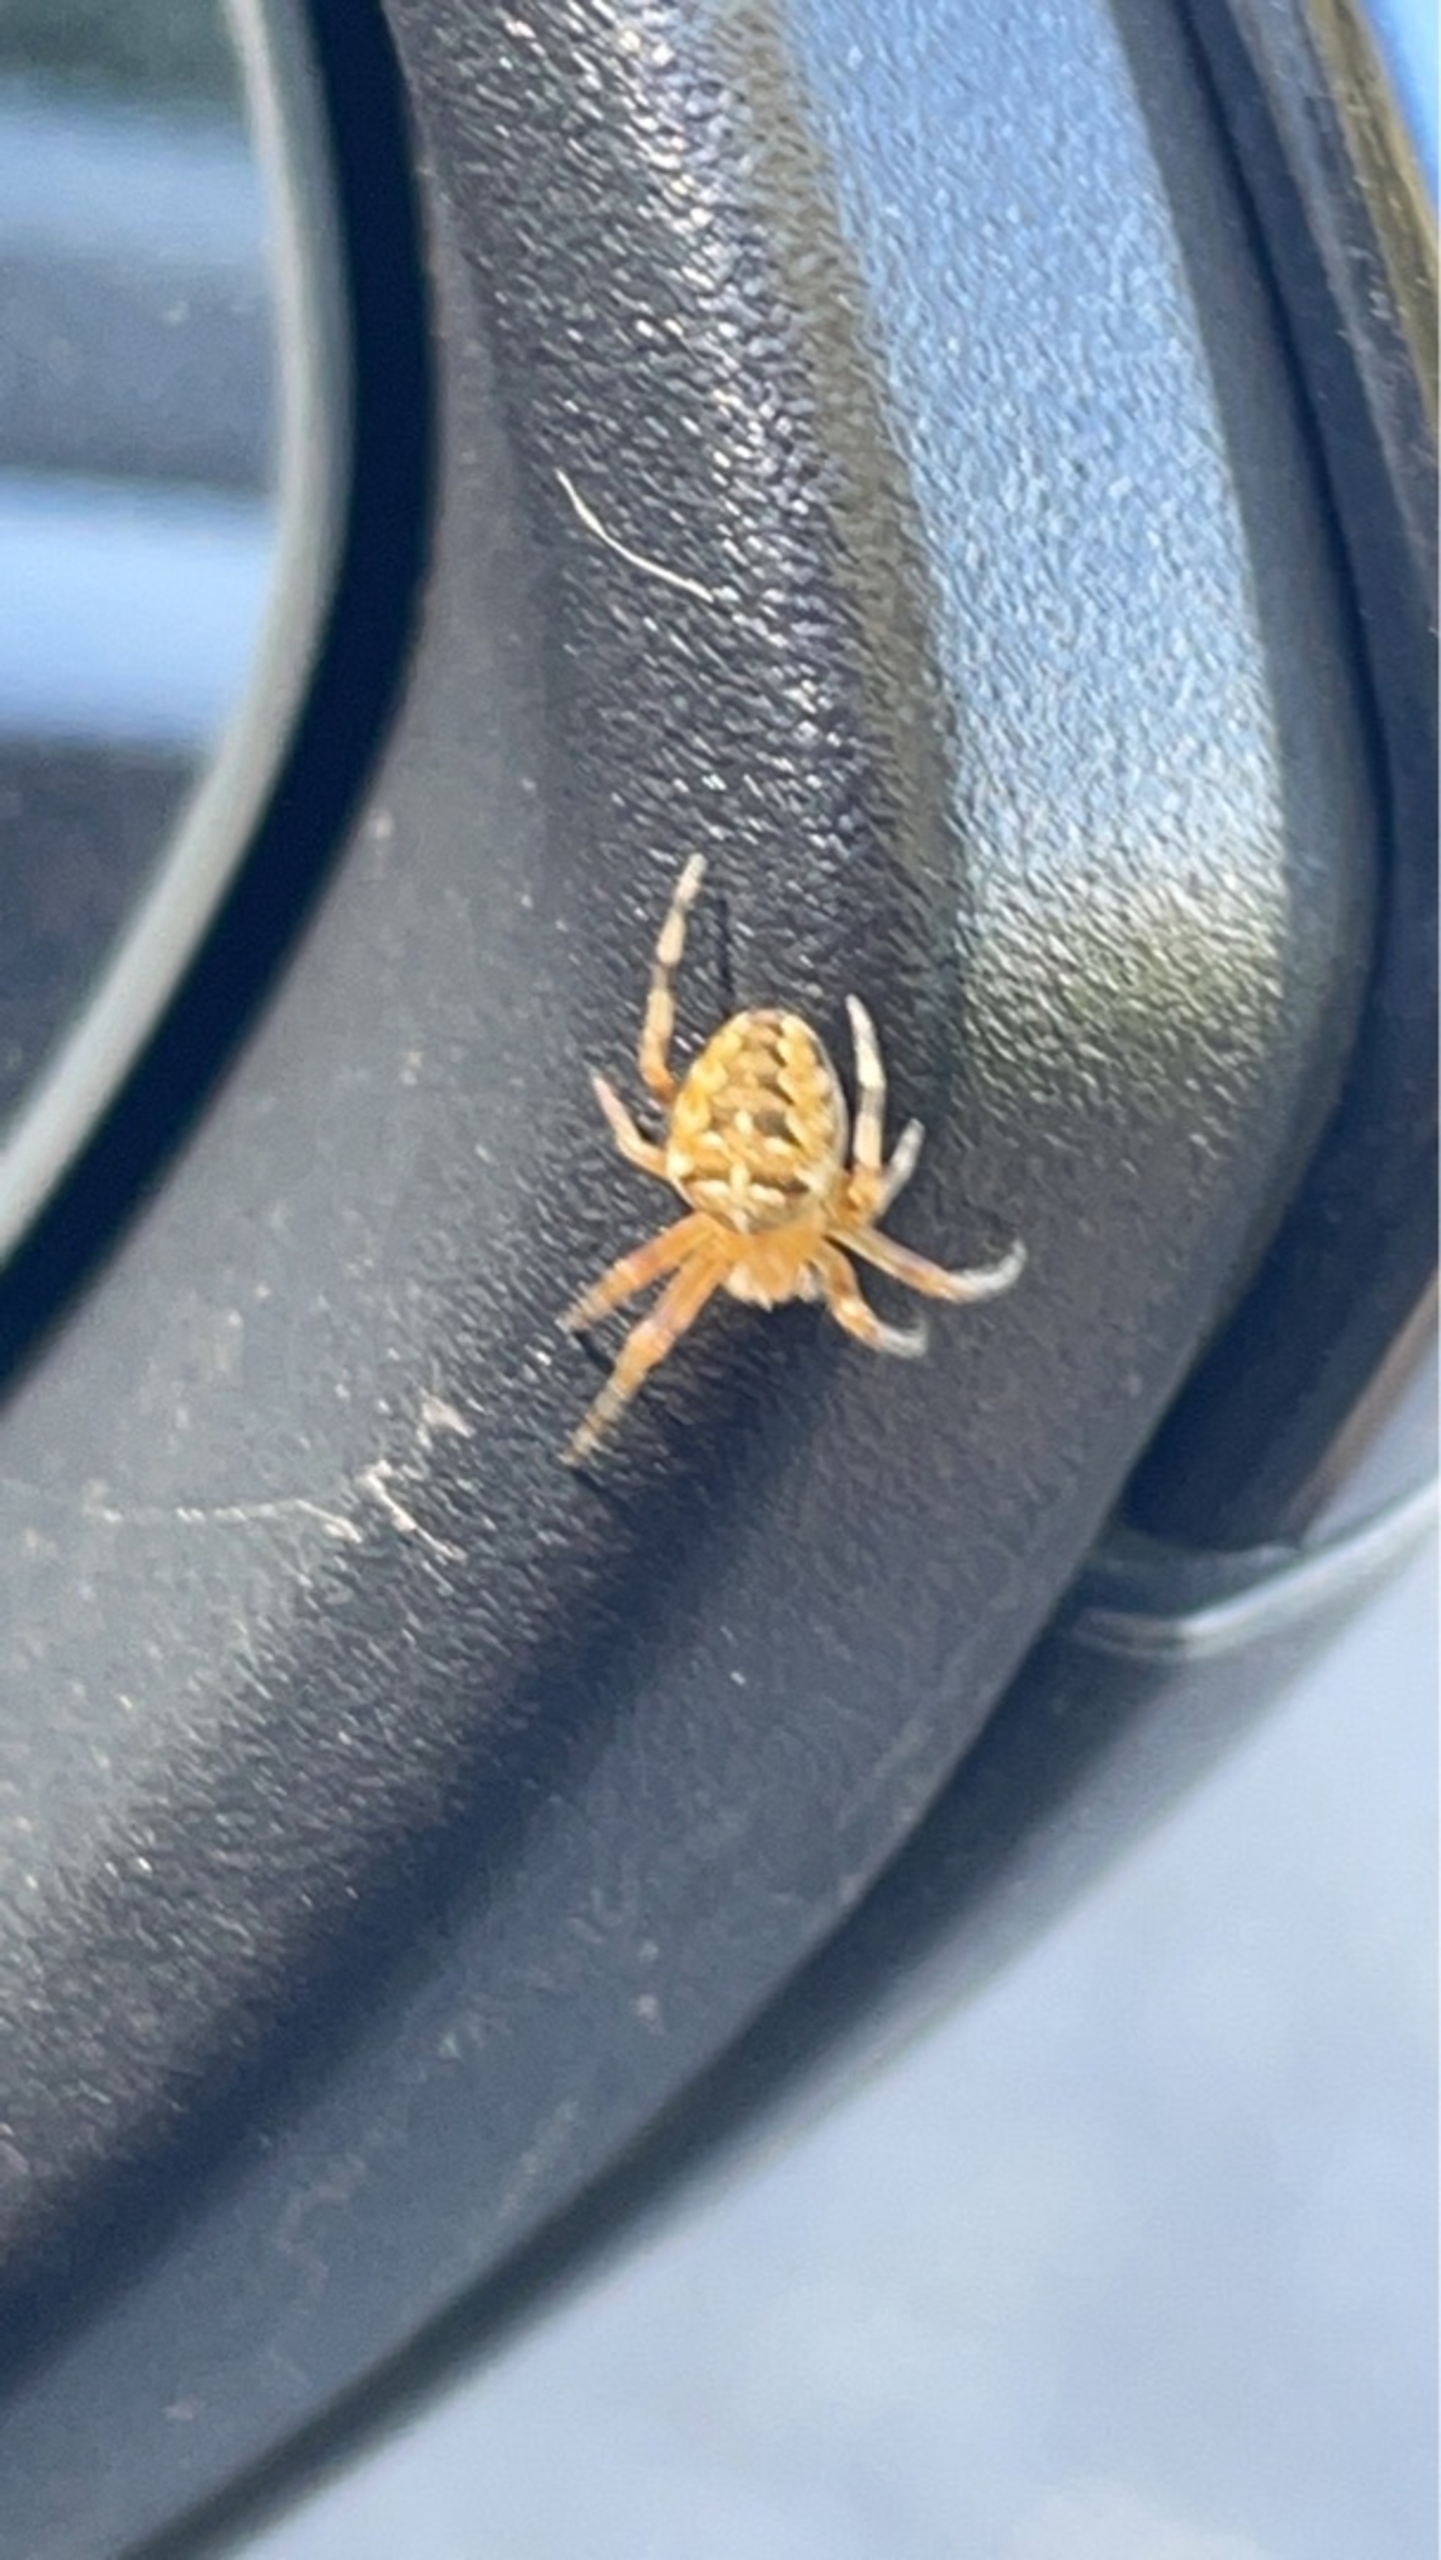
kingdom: Animalia
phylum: Arthropoda
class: Arachnida
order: Araneae
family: Araneidae
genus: Araneus
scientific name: Araneus diadematus
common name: Korsedderkop
